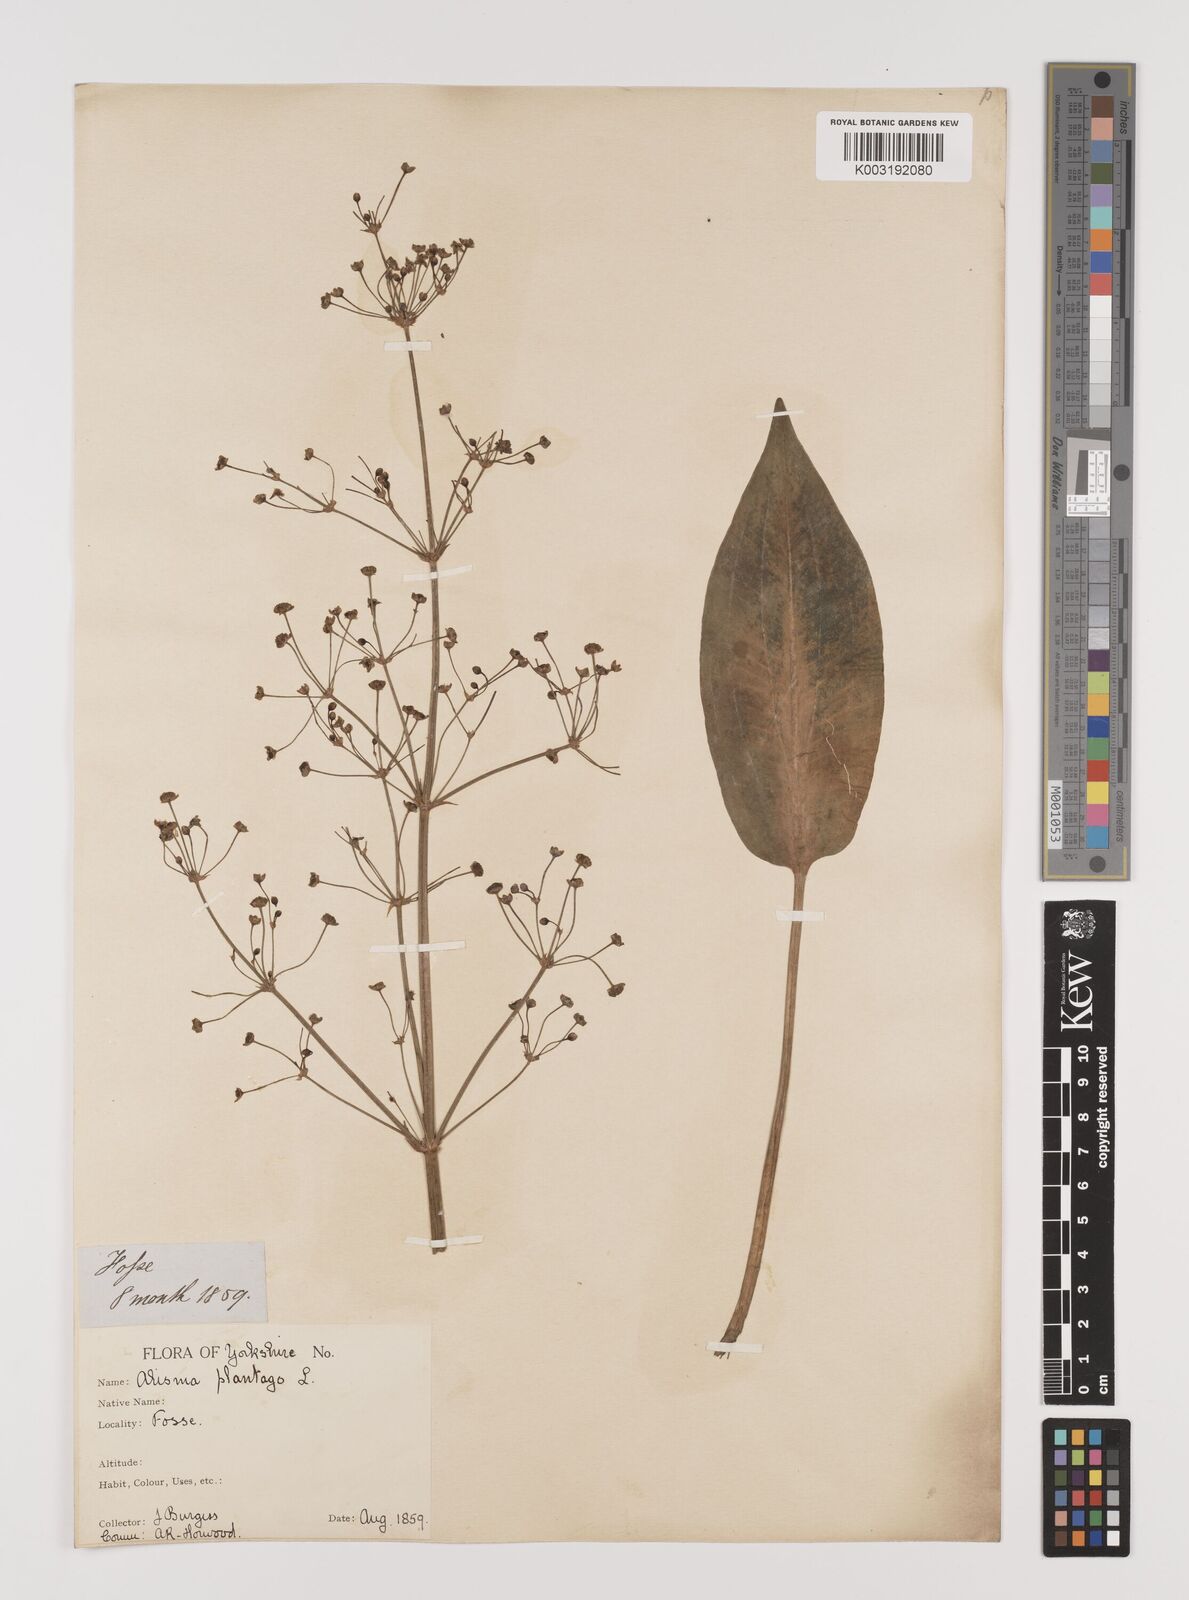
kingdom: Plantae
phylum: Tracheophyta
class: Liliopsida
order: Alismatales
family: Alismataceae
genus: Alisma
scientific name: Alisma plantago-aquatica
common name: Water-plantain
